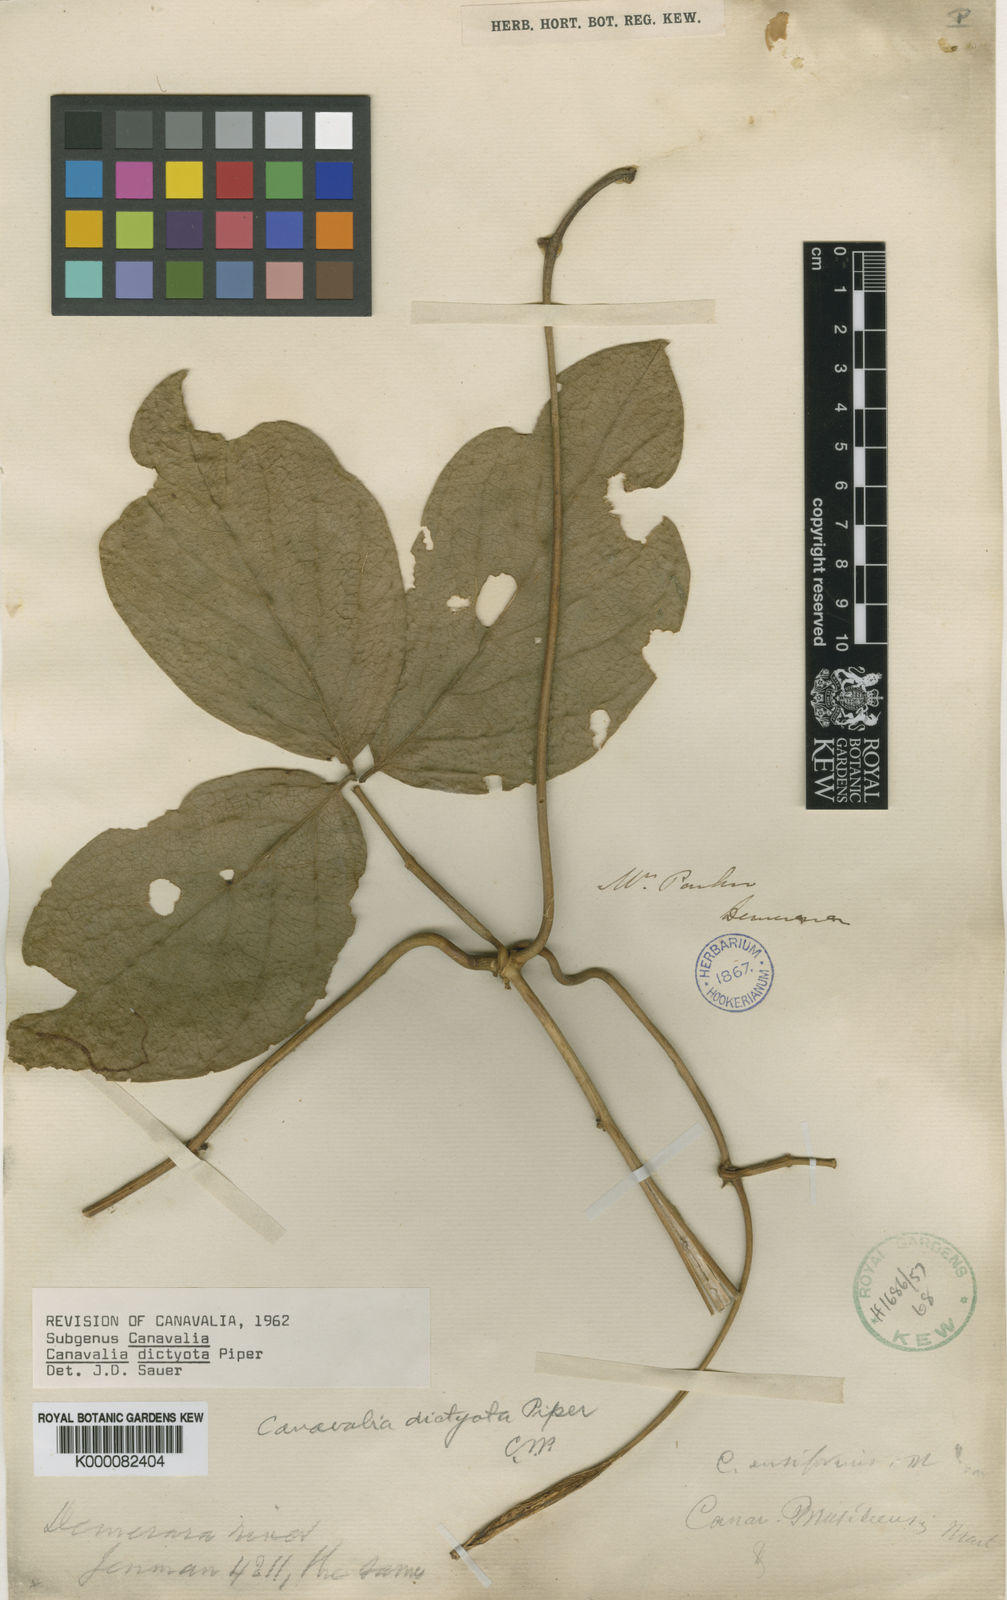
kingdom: Plantae
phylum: Tracheophyta
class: Magnoliopsida
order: Fabales
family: Fabaceae
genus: Canavalia
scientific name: Canavalia brasiliensis
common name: Barbicou-bean
